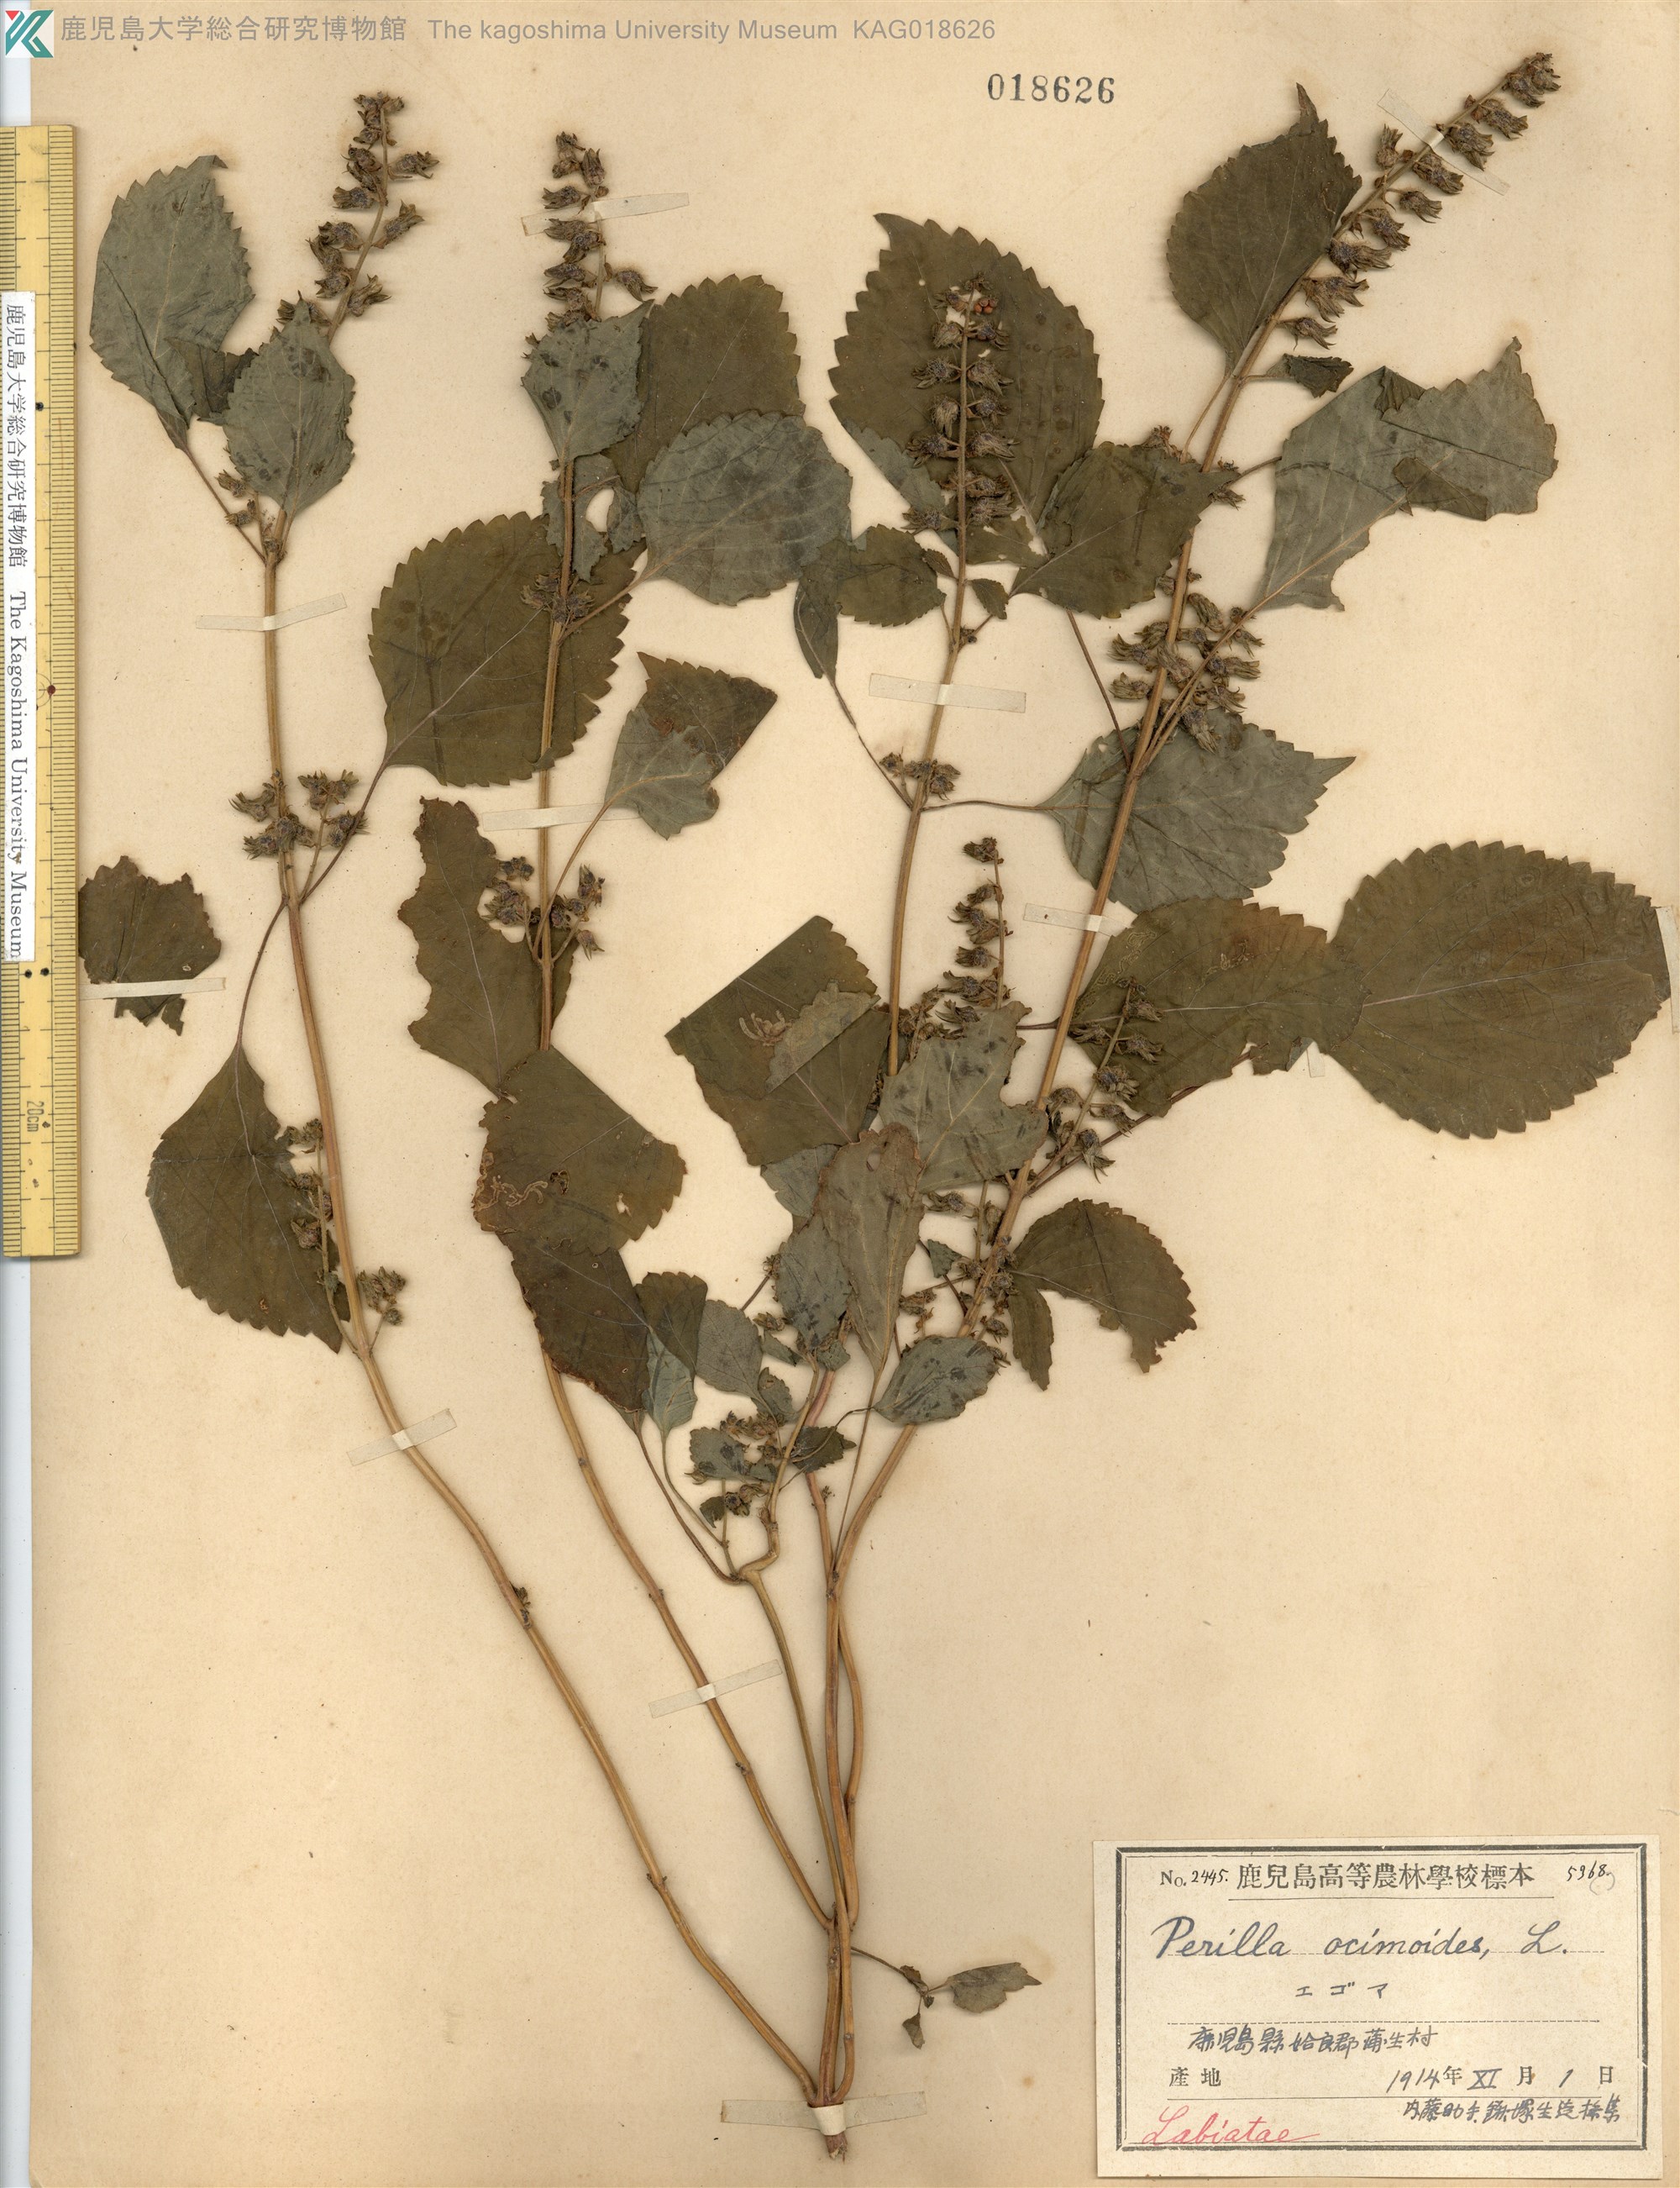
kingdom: Plantae
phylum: Tracheophyta
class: Magnoliopsida
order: Lamiales
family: Lamiaceae
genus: Perilla
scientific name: Perilla frutescens
